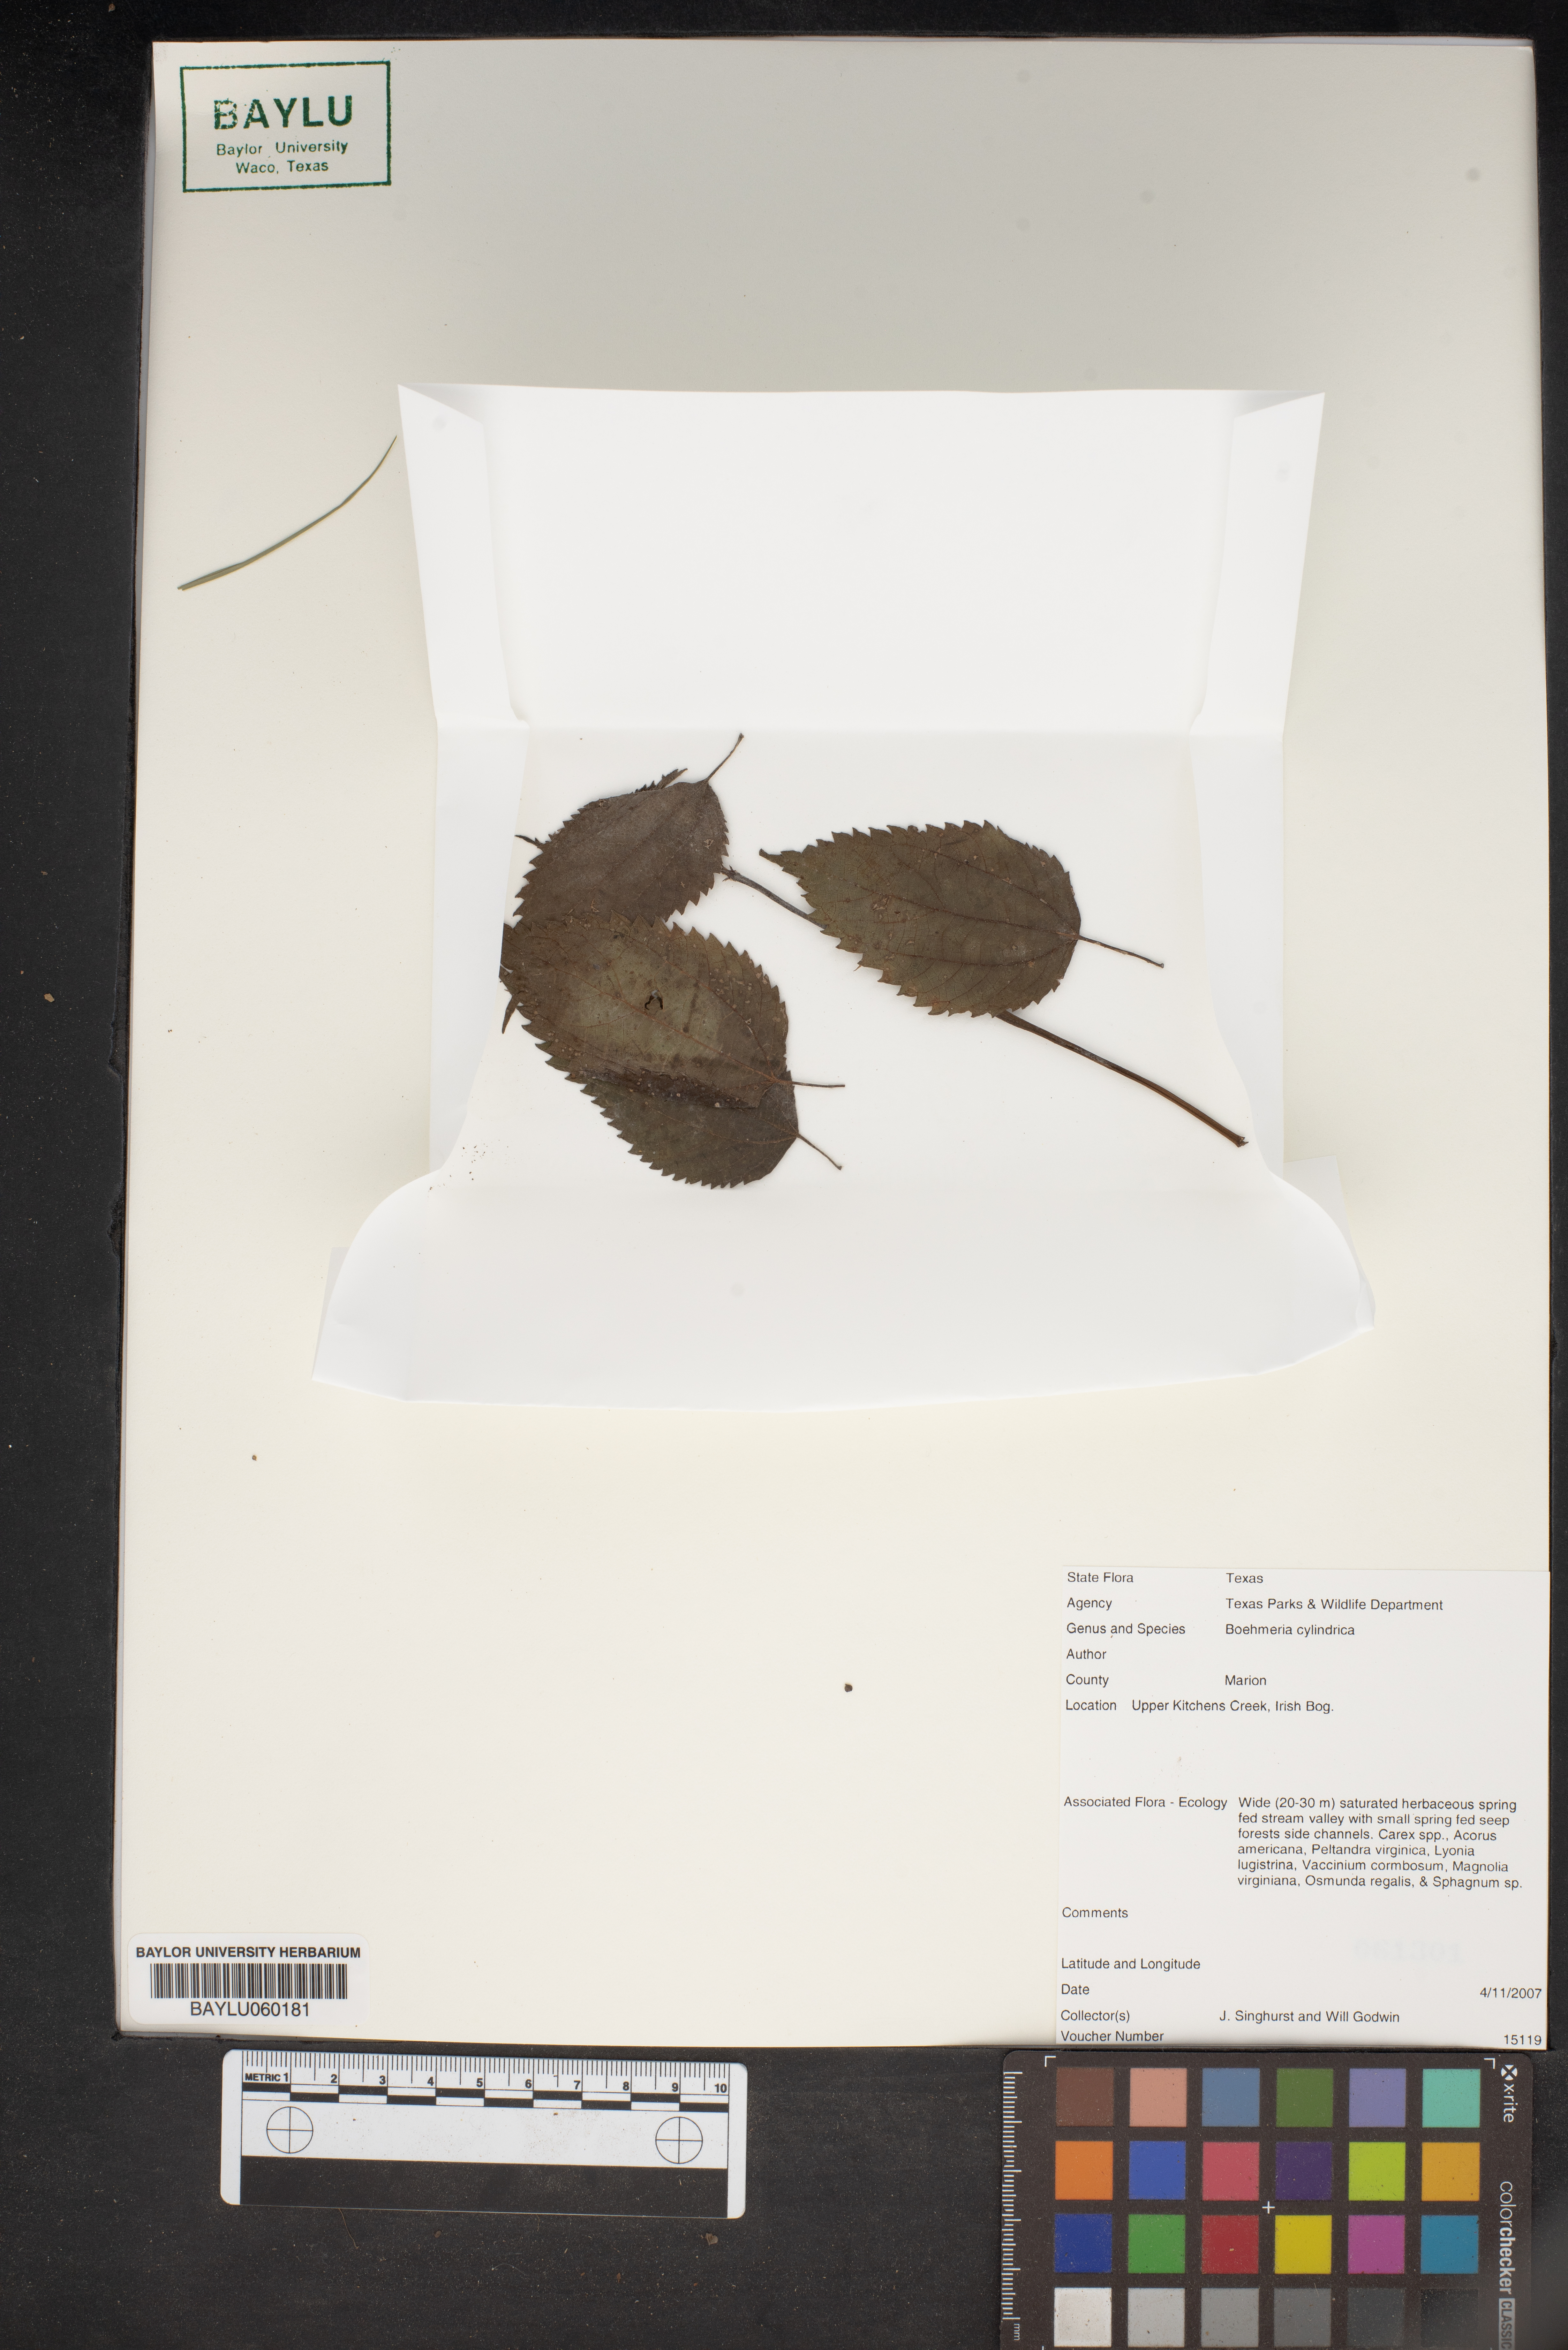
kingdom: Plantae
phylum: Tracheophyta
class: Magnoliopsida
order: Rosales
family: Urticaceae
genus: Boehmeria
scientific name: Boehmeria cylindrica
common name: Bog-hemp
